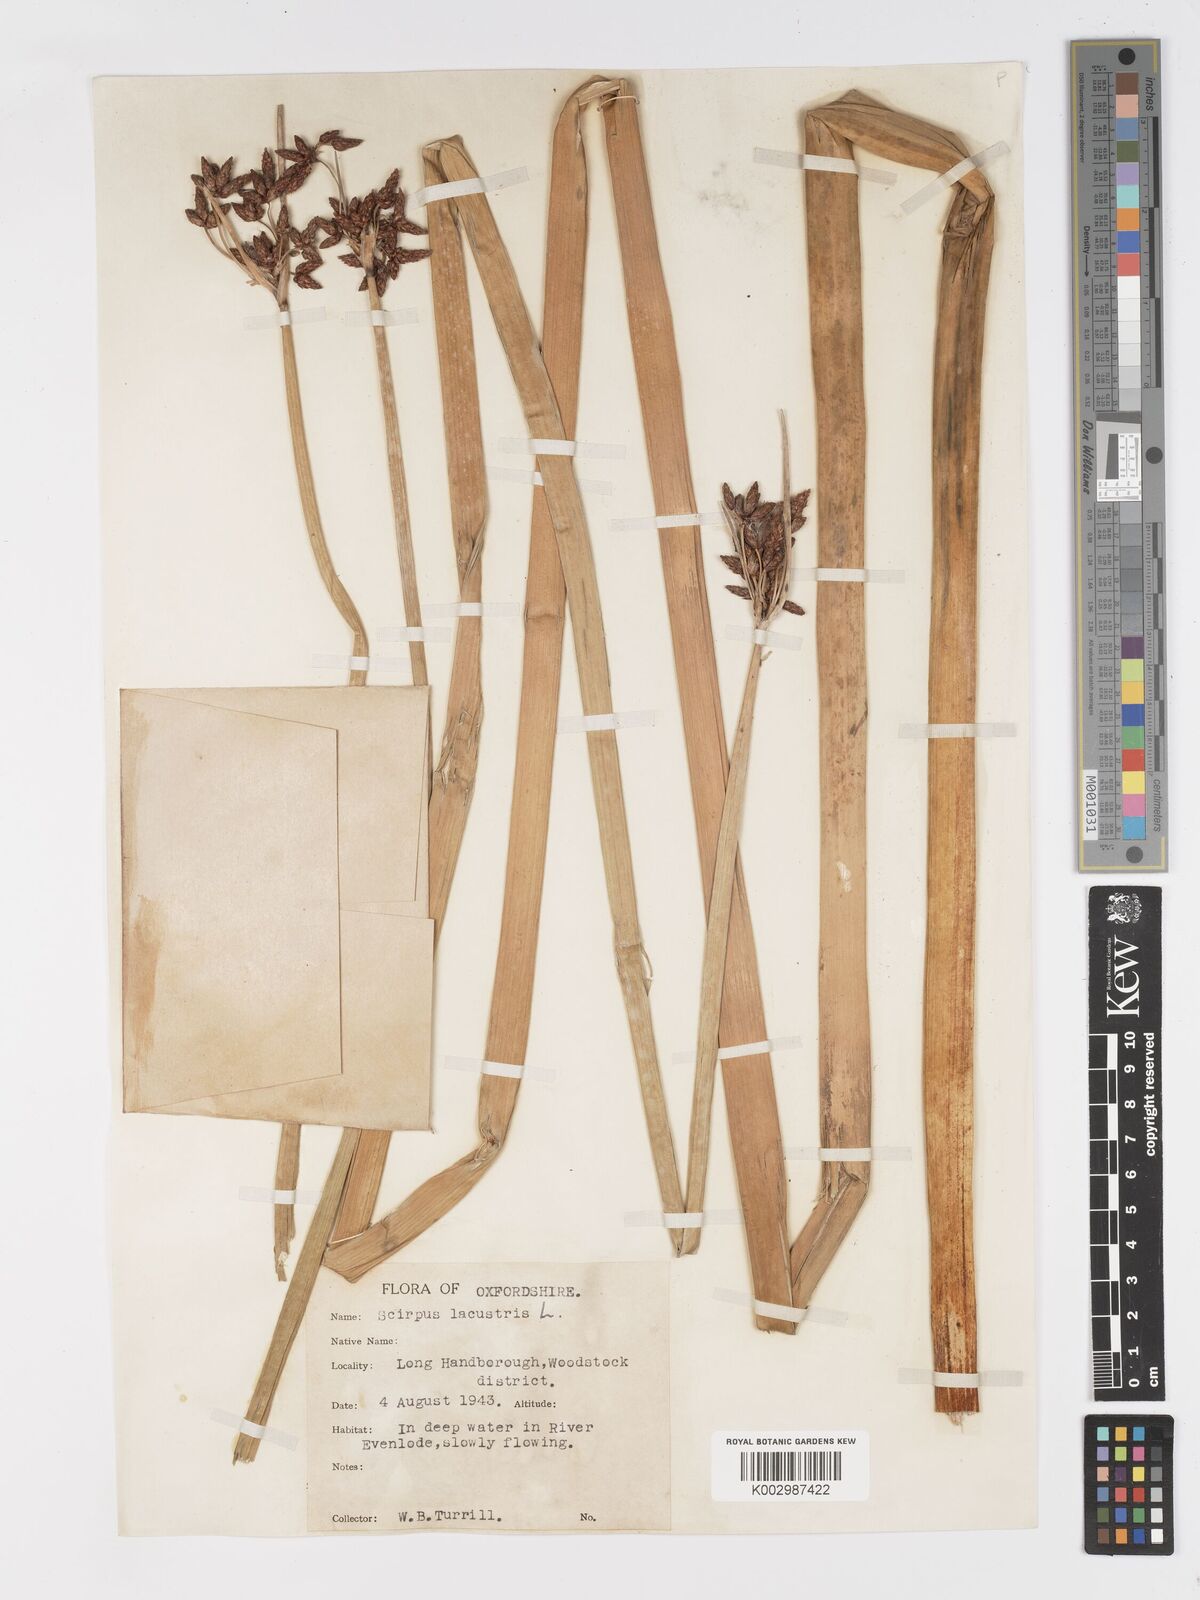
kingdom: Plantae
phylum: Tracheophyta
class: Liliopsida
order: Poales
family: Cyperaceae
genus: Schoenoplectus
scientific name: Schoenoplectus lacustris
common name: Common club-rush
